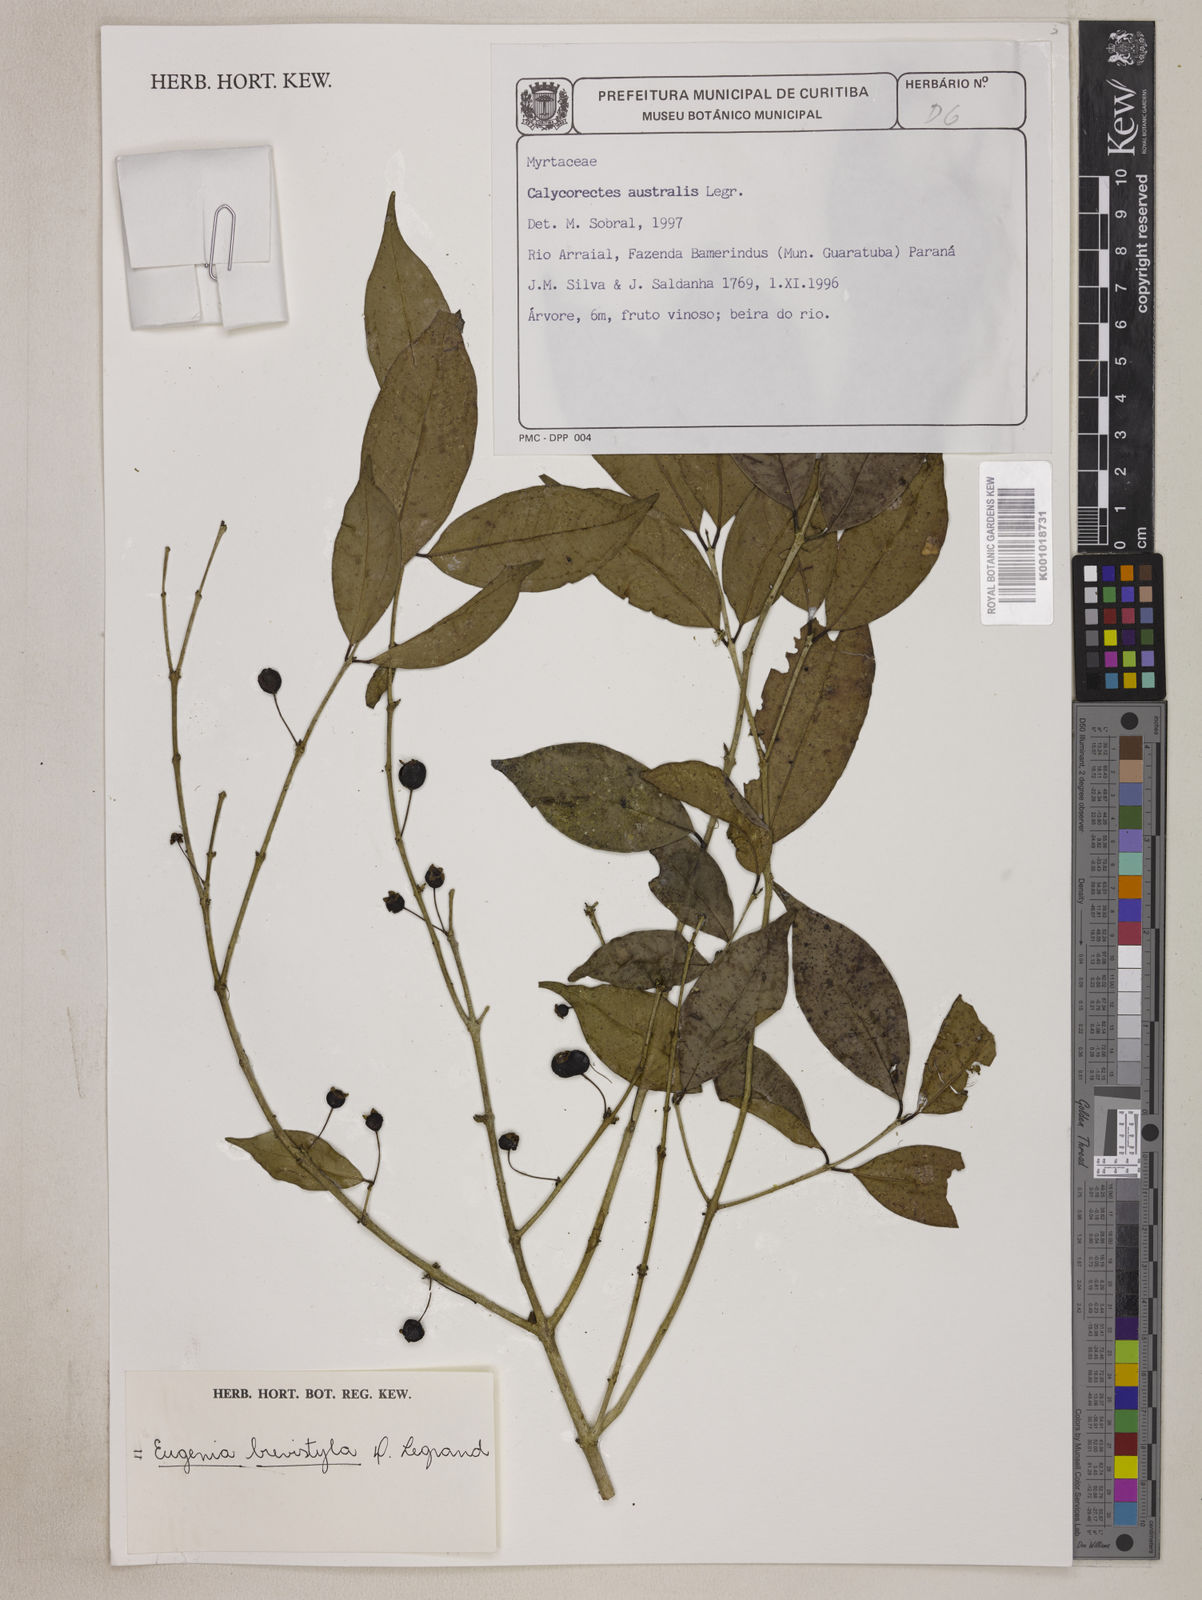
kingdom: Plantae
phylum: Tracheophyta
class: Magnoliopsida
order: Myrtales
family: Myrtaceae
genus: Eugenia
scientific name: Eugenia brevistyla
